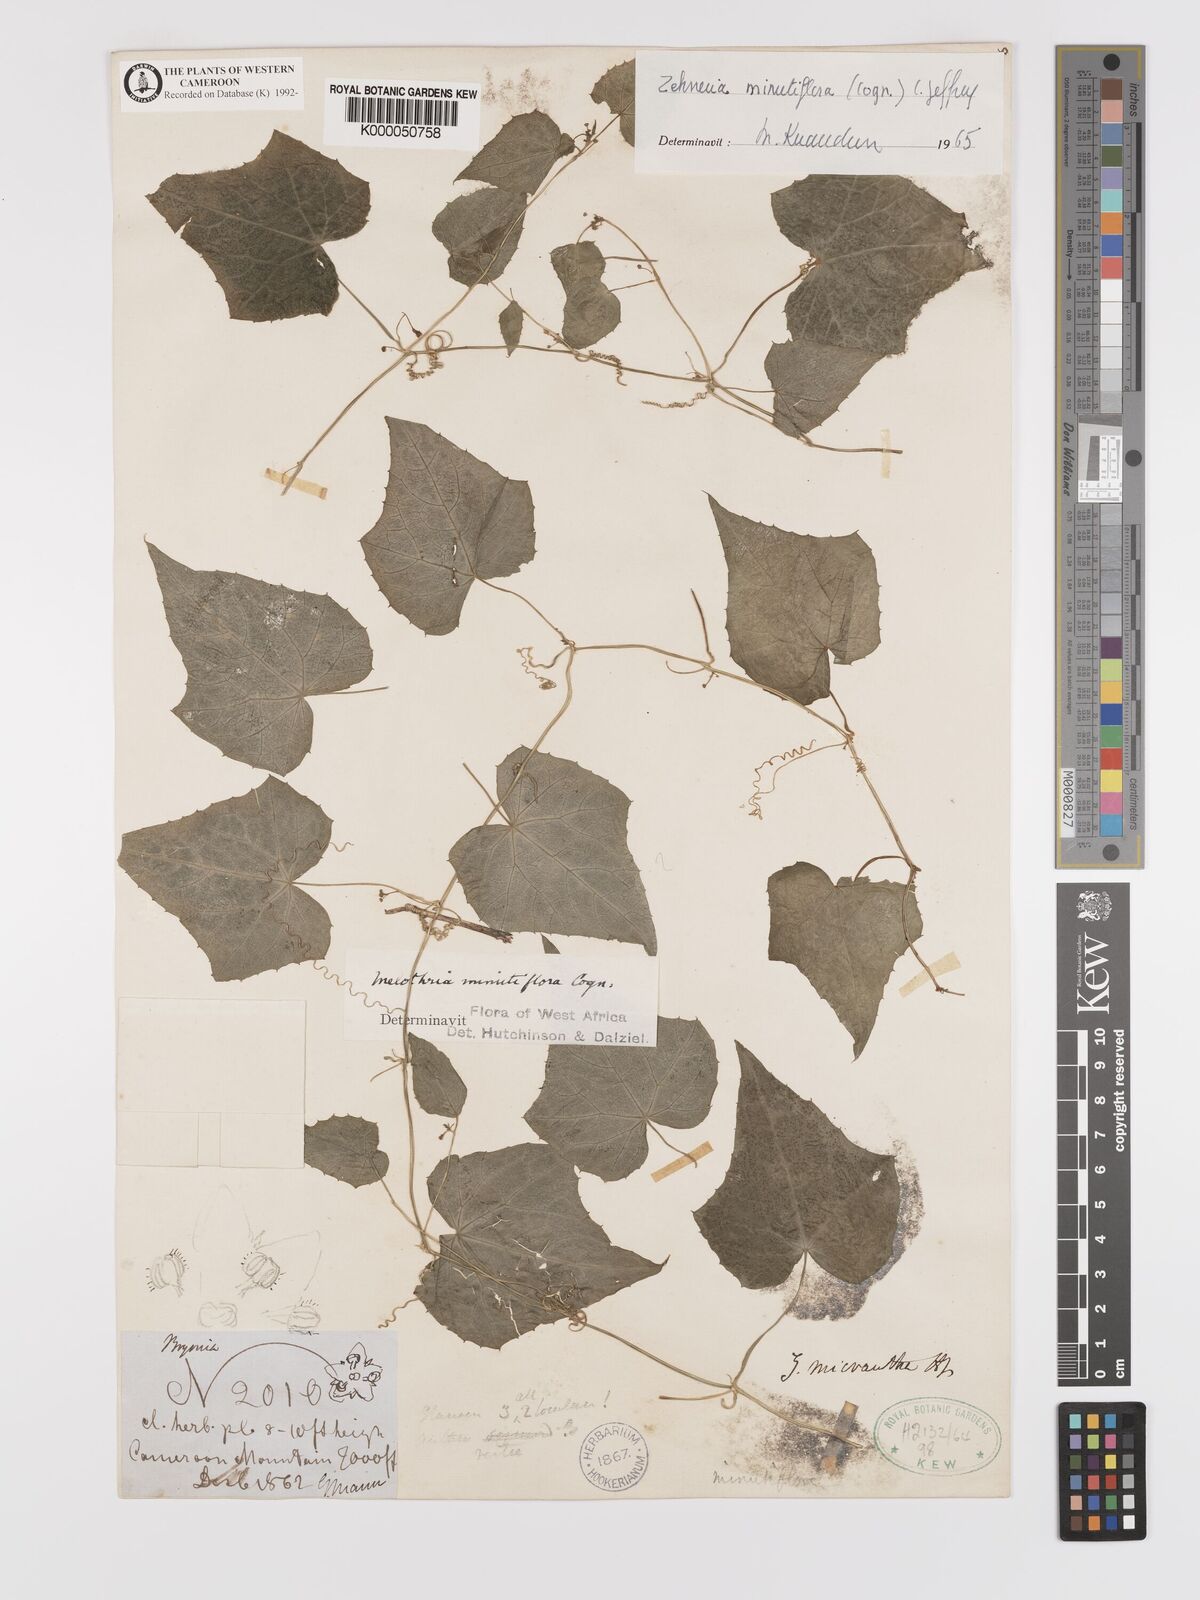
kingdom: Plantae
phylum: Tracheophyta
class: Magnoliopsida
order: Cucurbitales
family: Cucurbitaceae
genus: Zehneria
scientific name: Zehneria minutiflora
